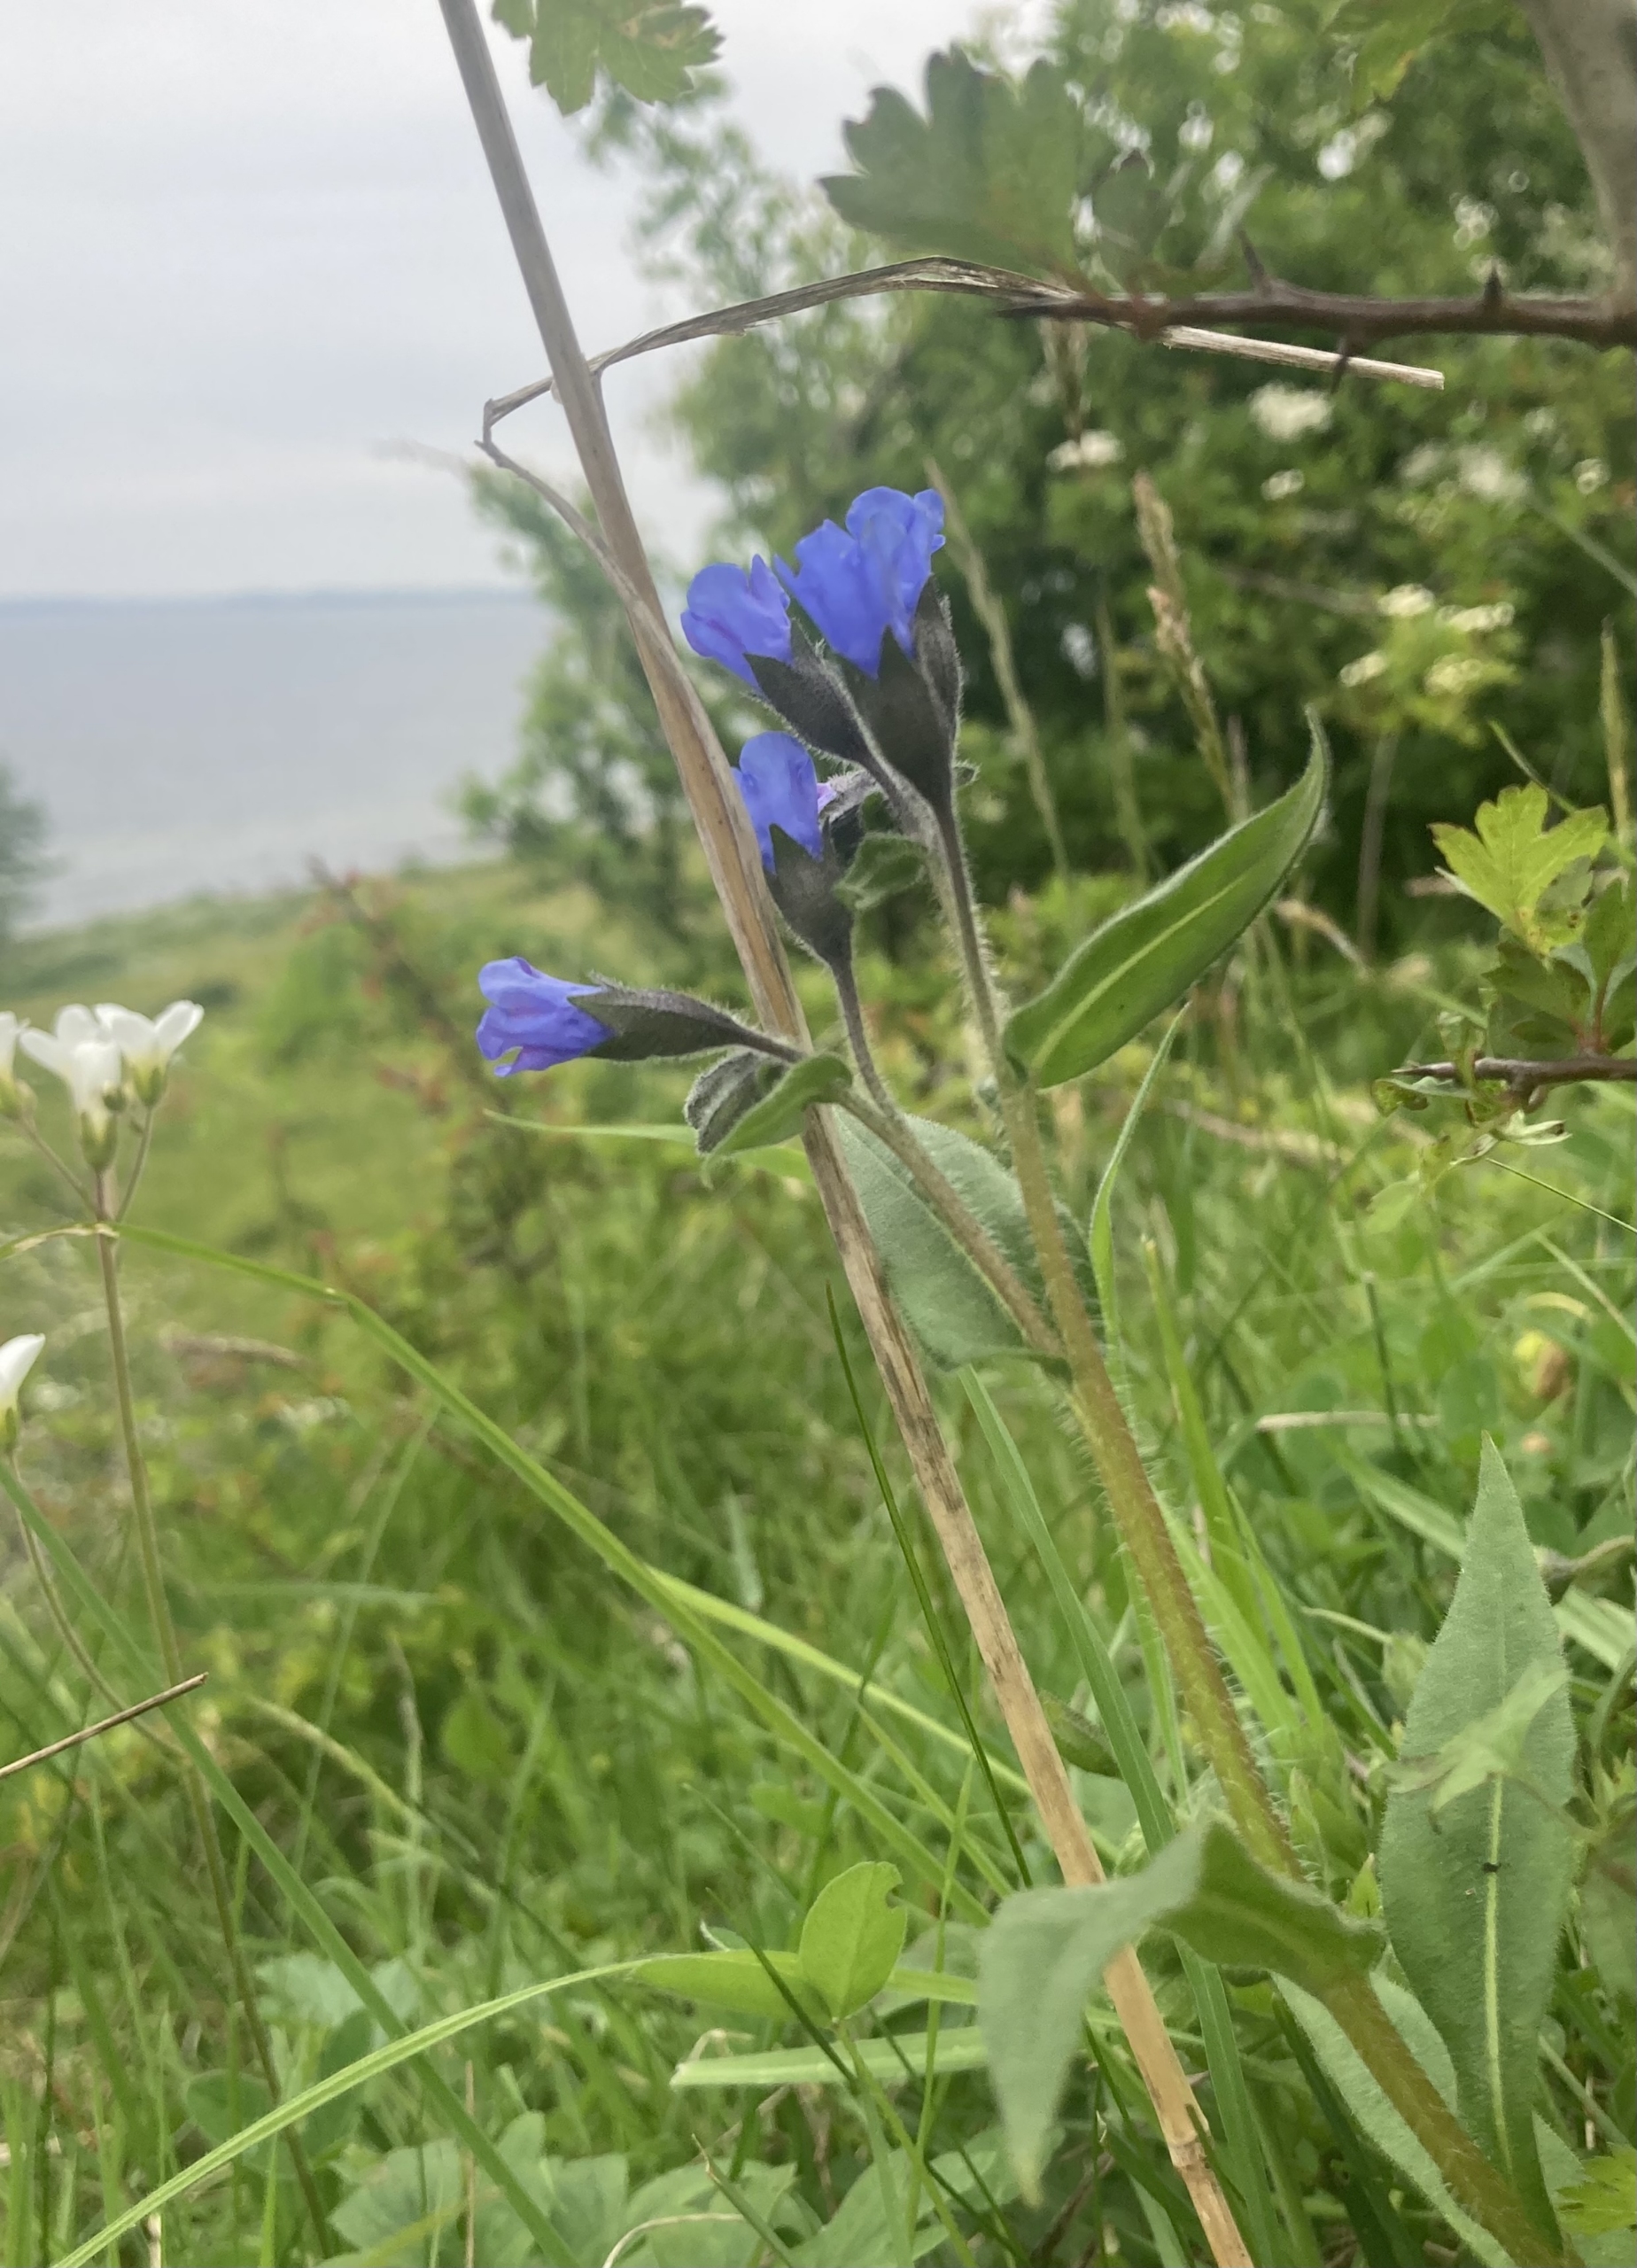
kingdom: Plantae
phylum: Tracheophyta
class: Magnoliopsida
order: Boraginales
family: Boraginaceae
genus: Pulmonaria
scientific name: Pulmonaria angustifolia
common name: Himmelblå lungeurt
